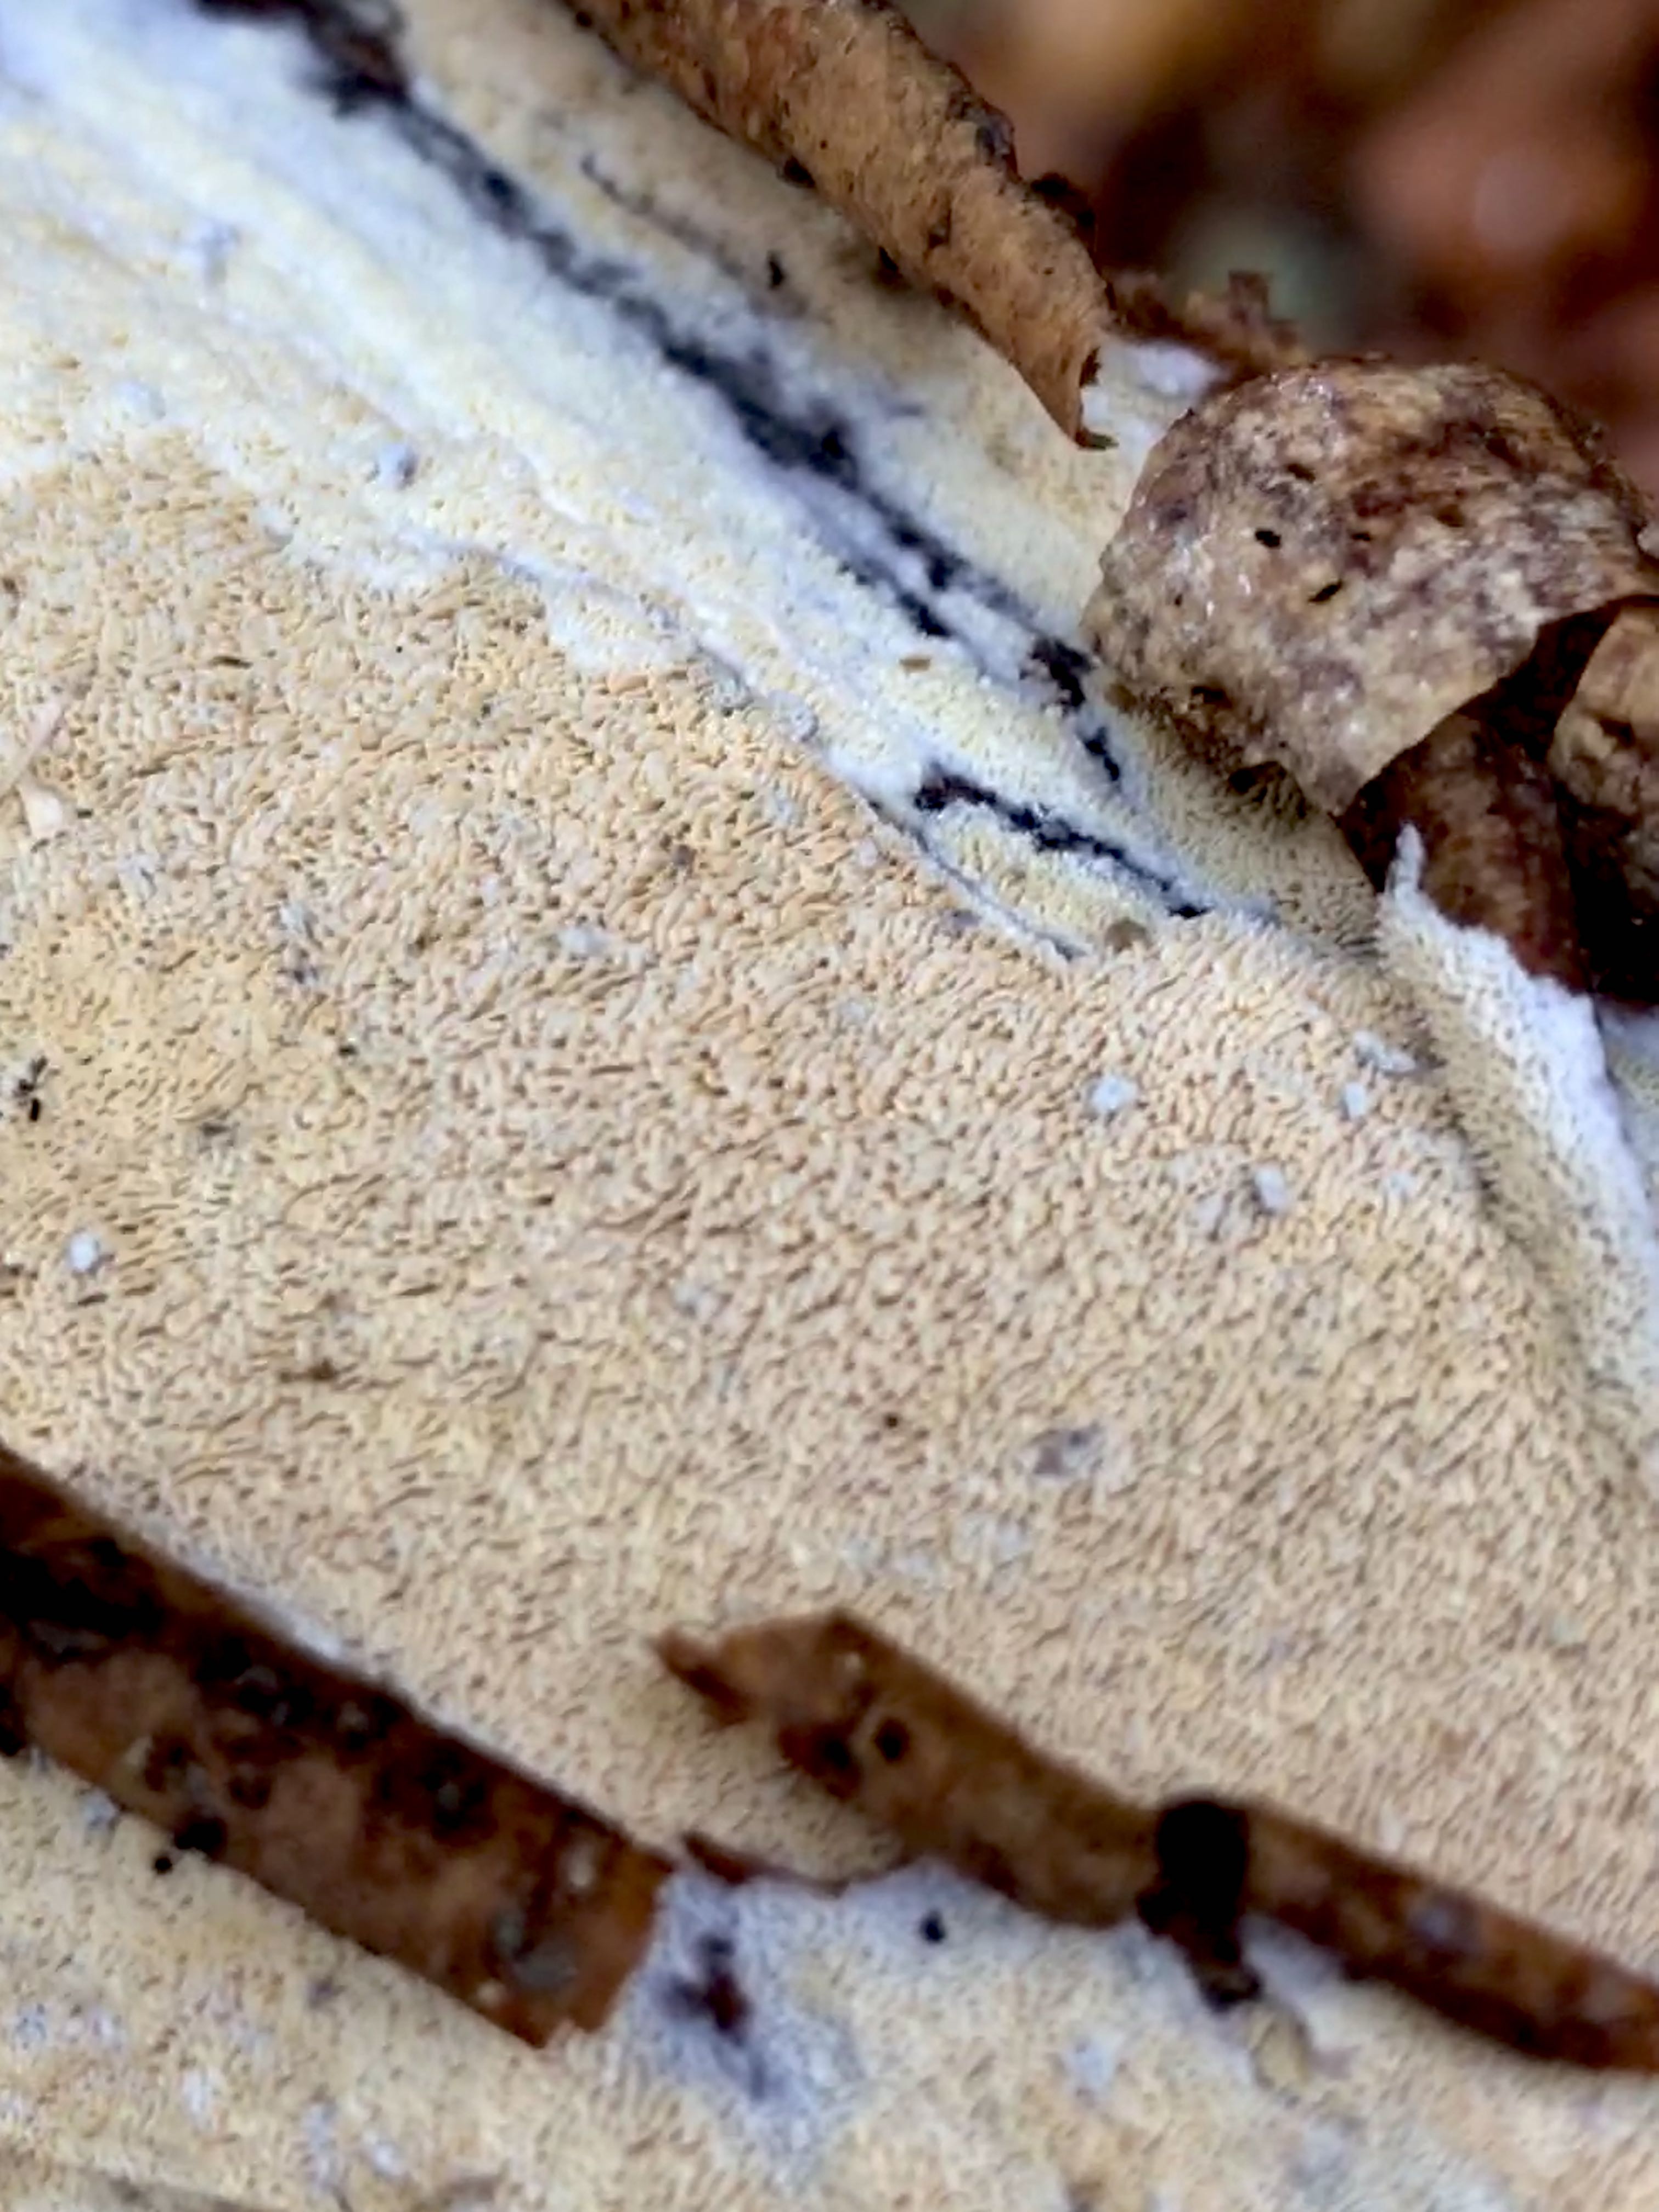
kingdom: Fungi
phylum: Basidiomycota
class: Agaricomycetes
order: Hymenochaetales
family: Schizoporaceae
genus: Xylodon
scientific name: Xylodon subtropicus
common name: labyrint-tandsvamp
